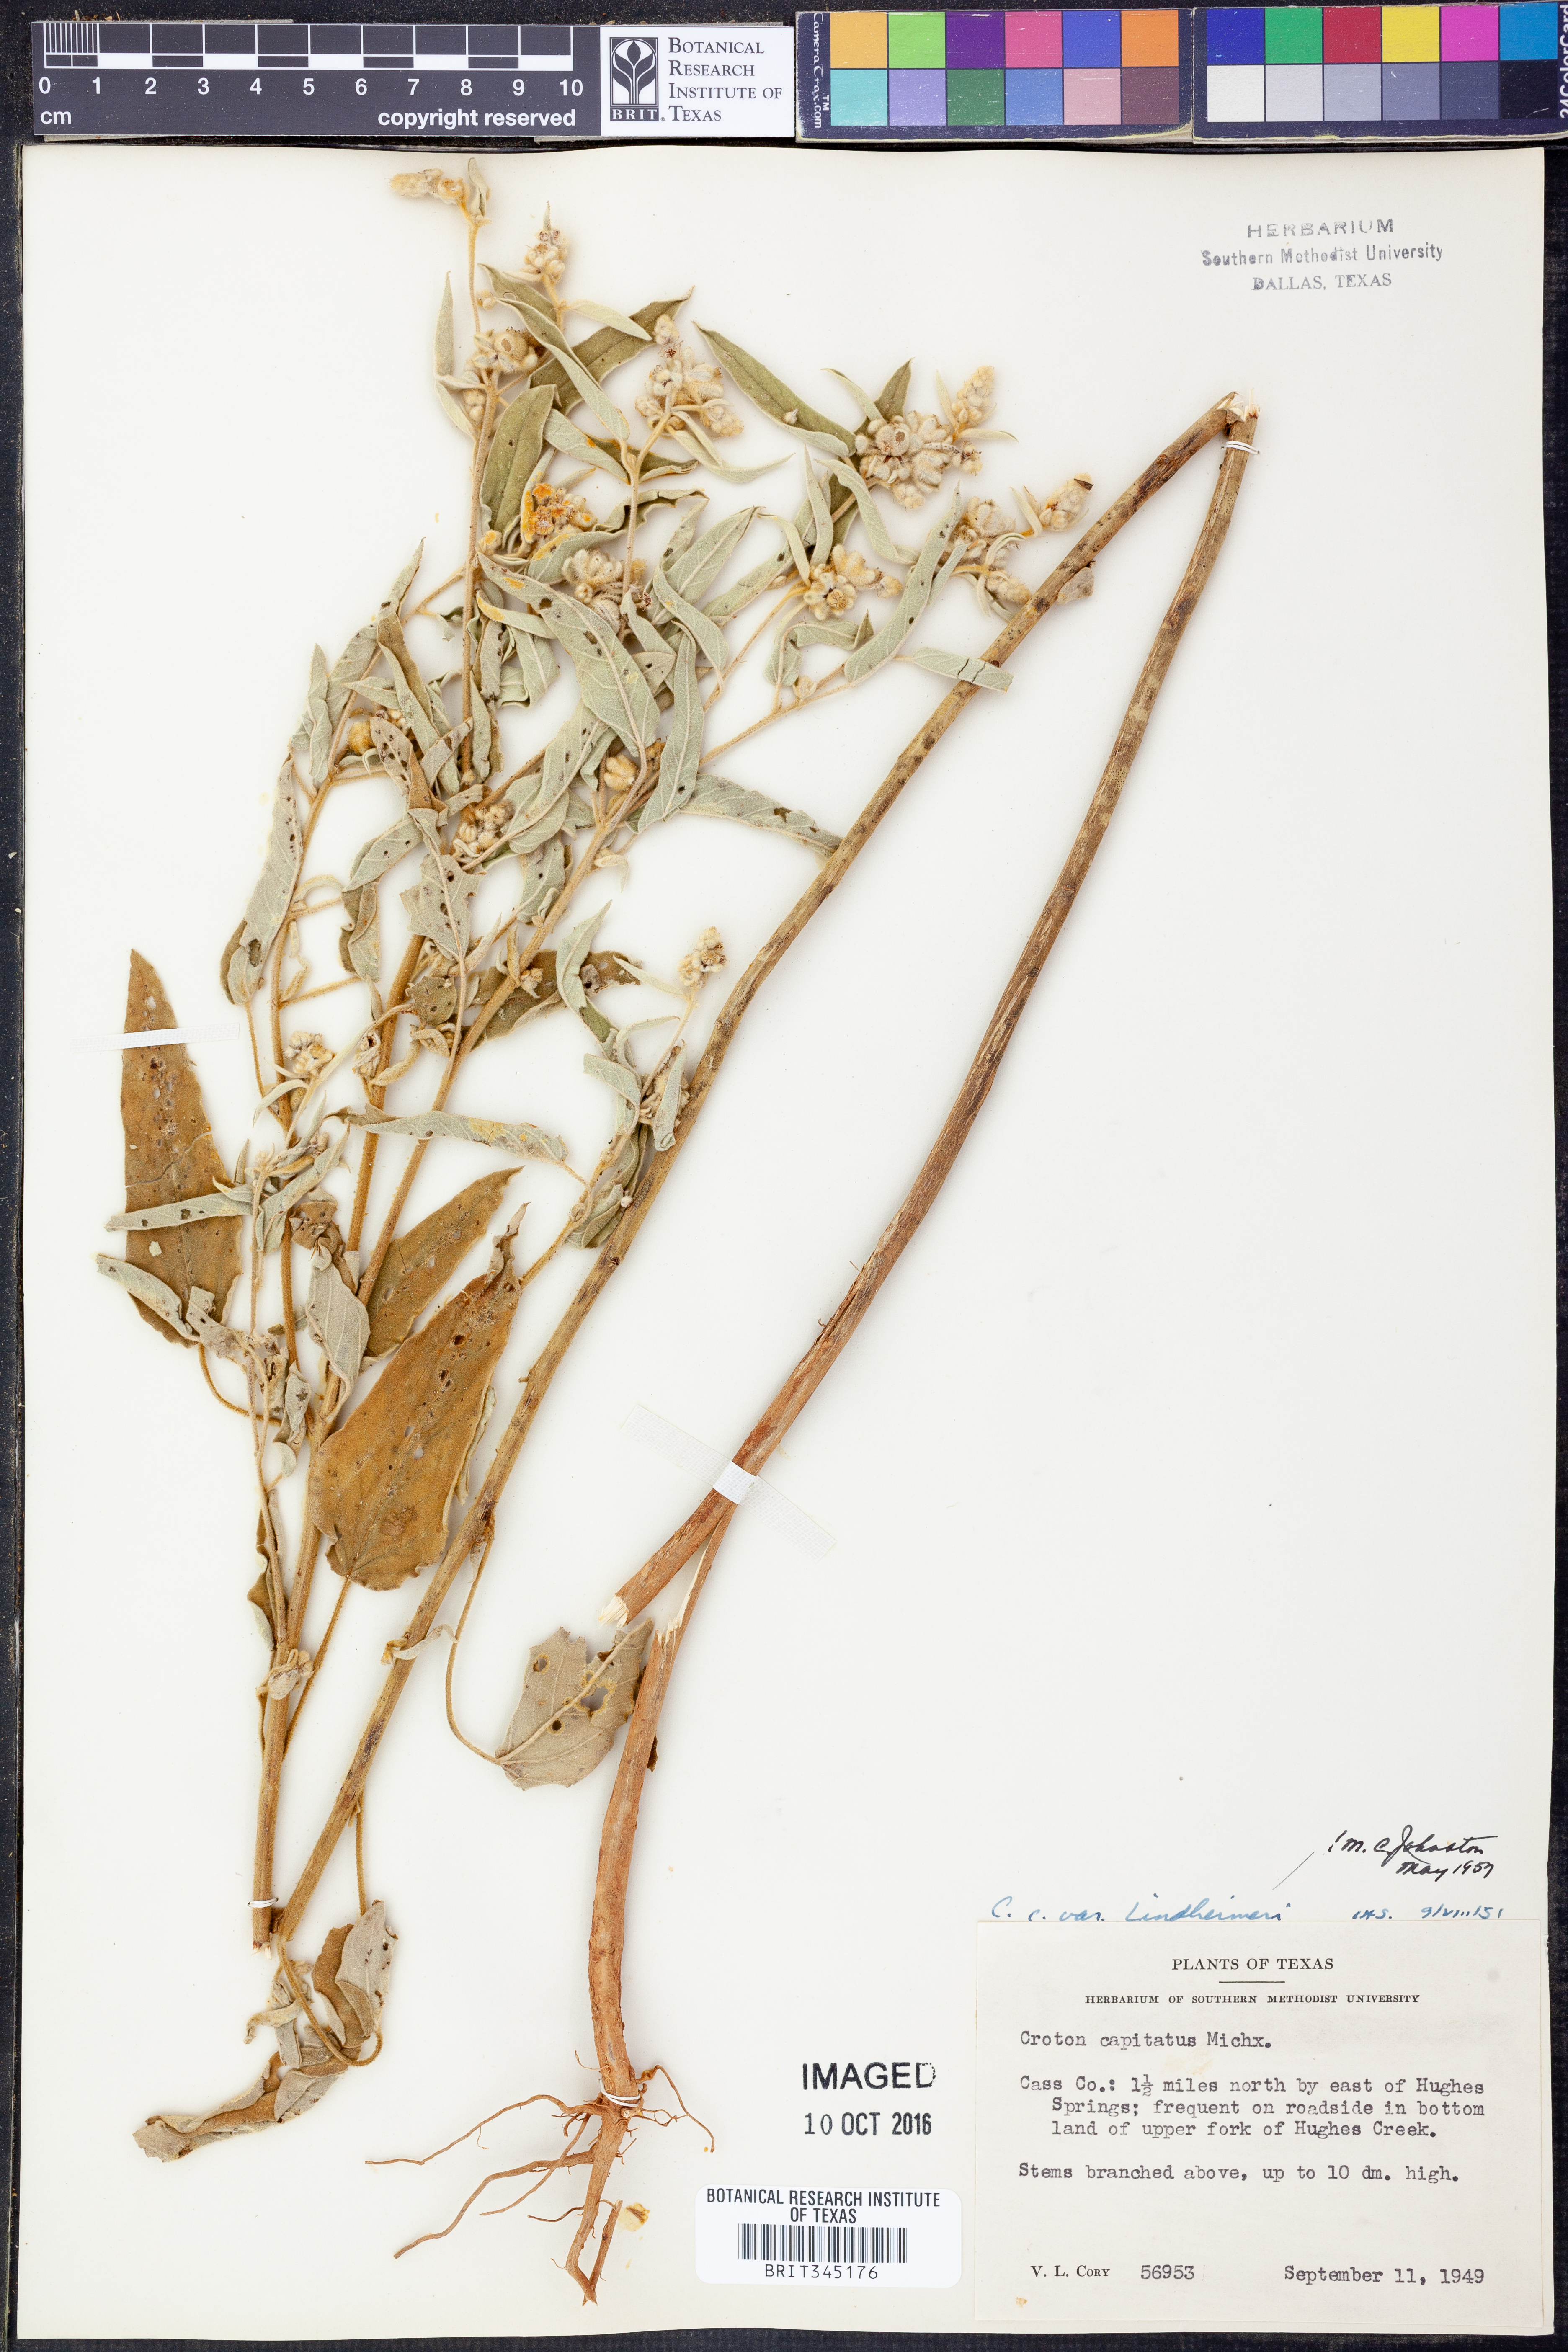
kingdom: Plantae
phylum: Tracheophyta
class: Magnoliopsida
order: Malpighiales
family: Euphorbiaceae
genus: Croton
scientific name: Croton lindheimeri
